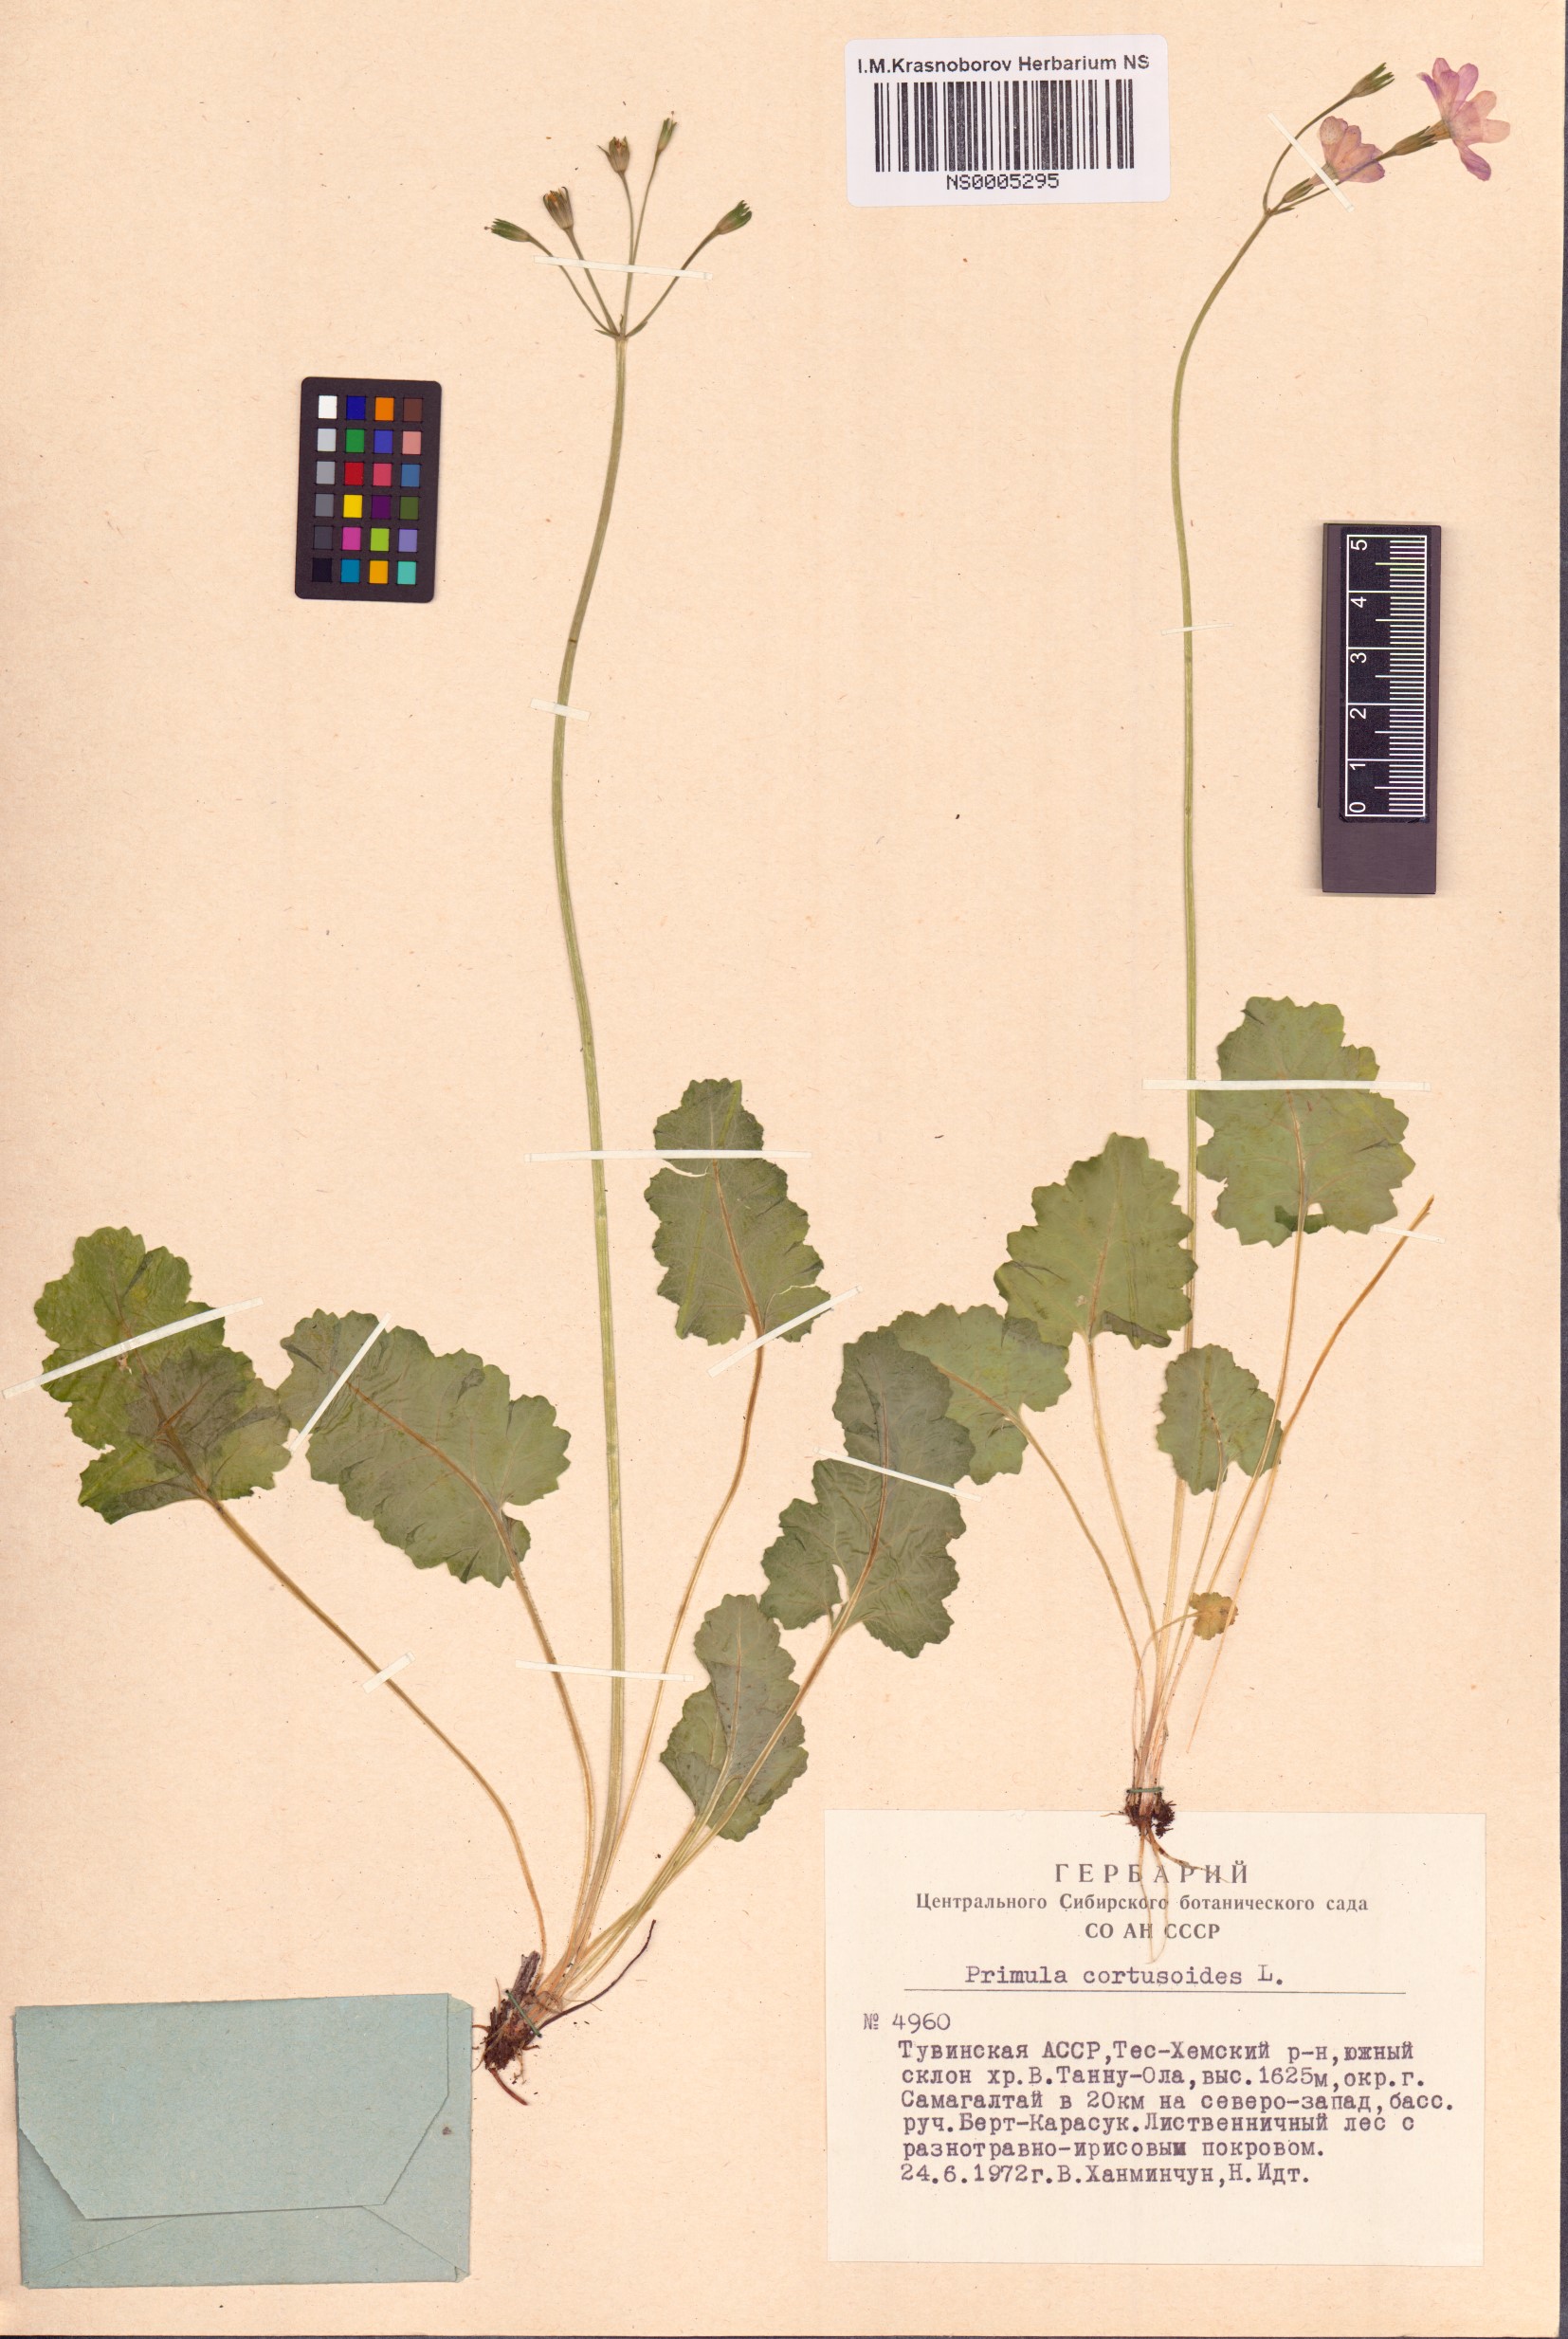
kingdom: Plantae
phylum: Tracheophyta
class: Magnoliopsida
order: Ericales
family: Primulaceae
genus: Primula
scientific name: Primula cortusoides
